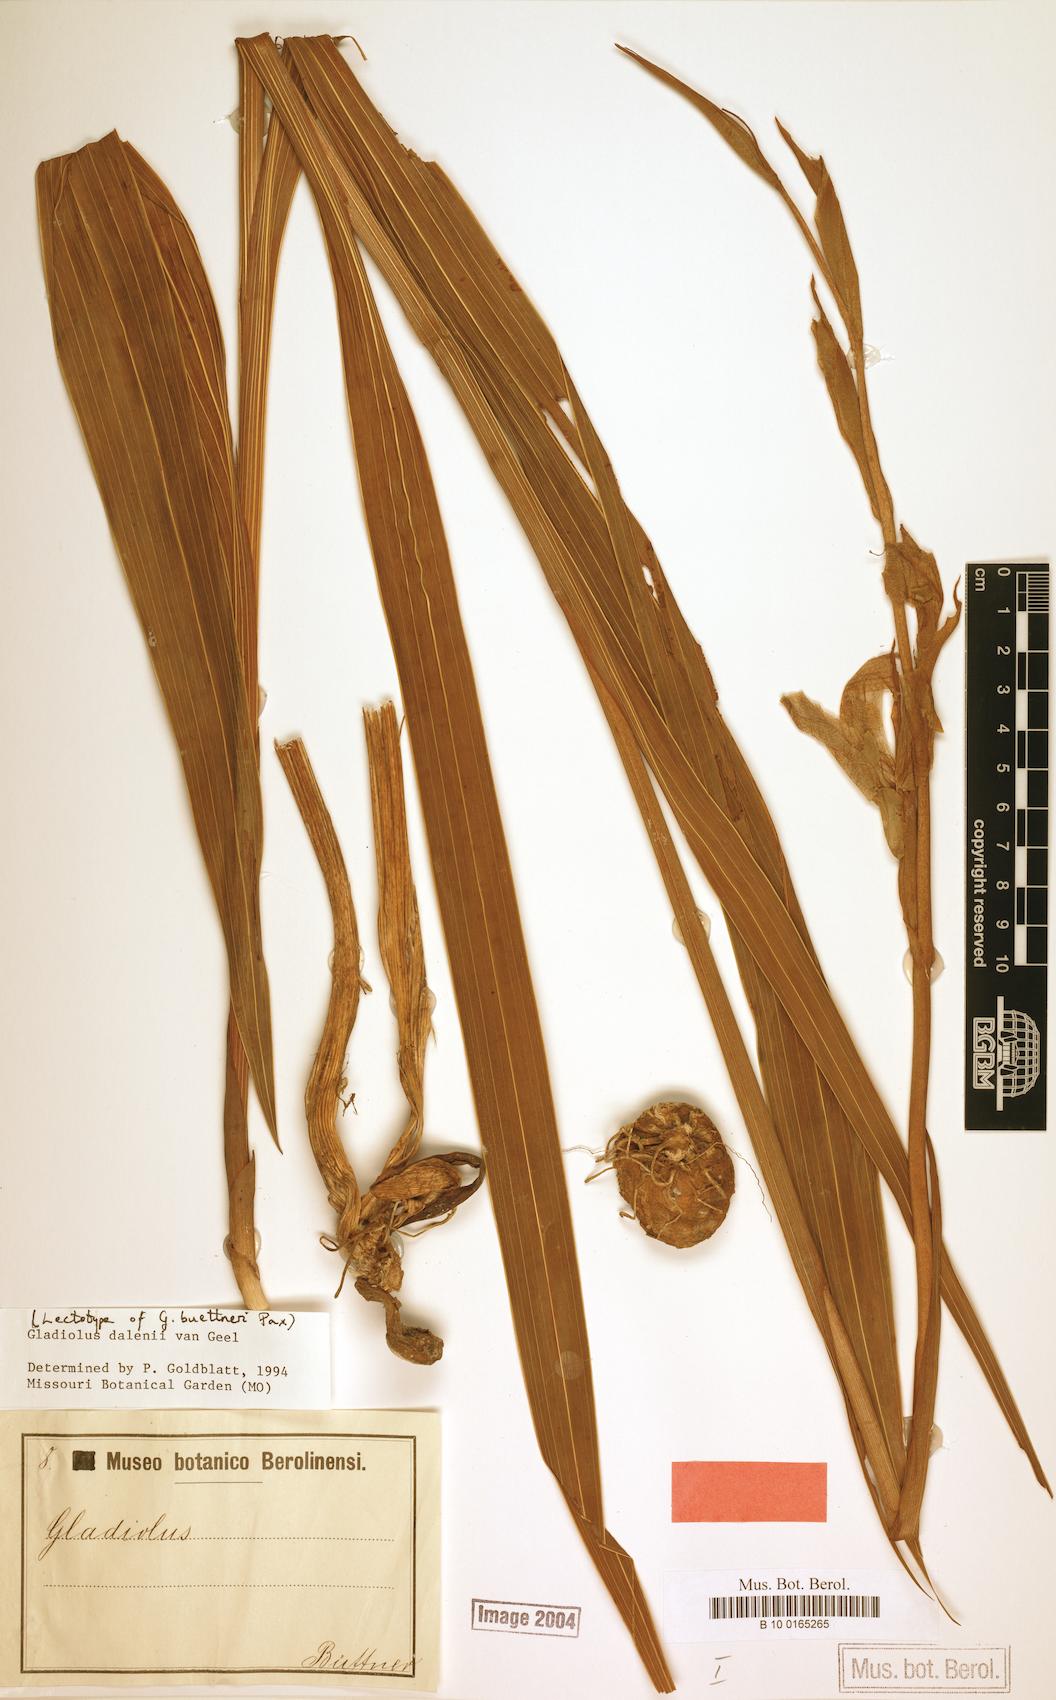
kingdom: Plantae
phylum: Tracheophyta
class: Liliopsida
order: Asparagales
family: Iridaceae
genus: Gladiolus
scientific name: Gladiolus dalenii
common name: Cornflag
